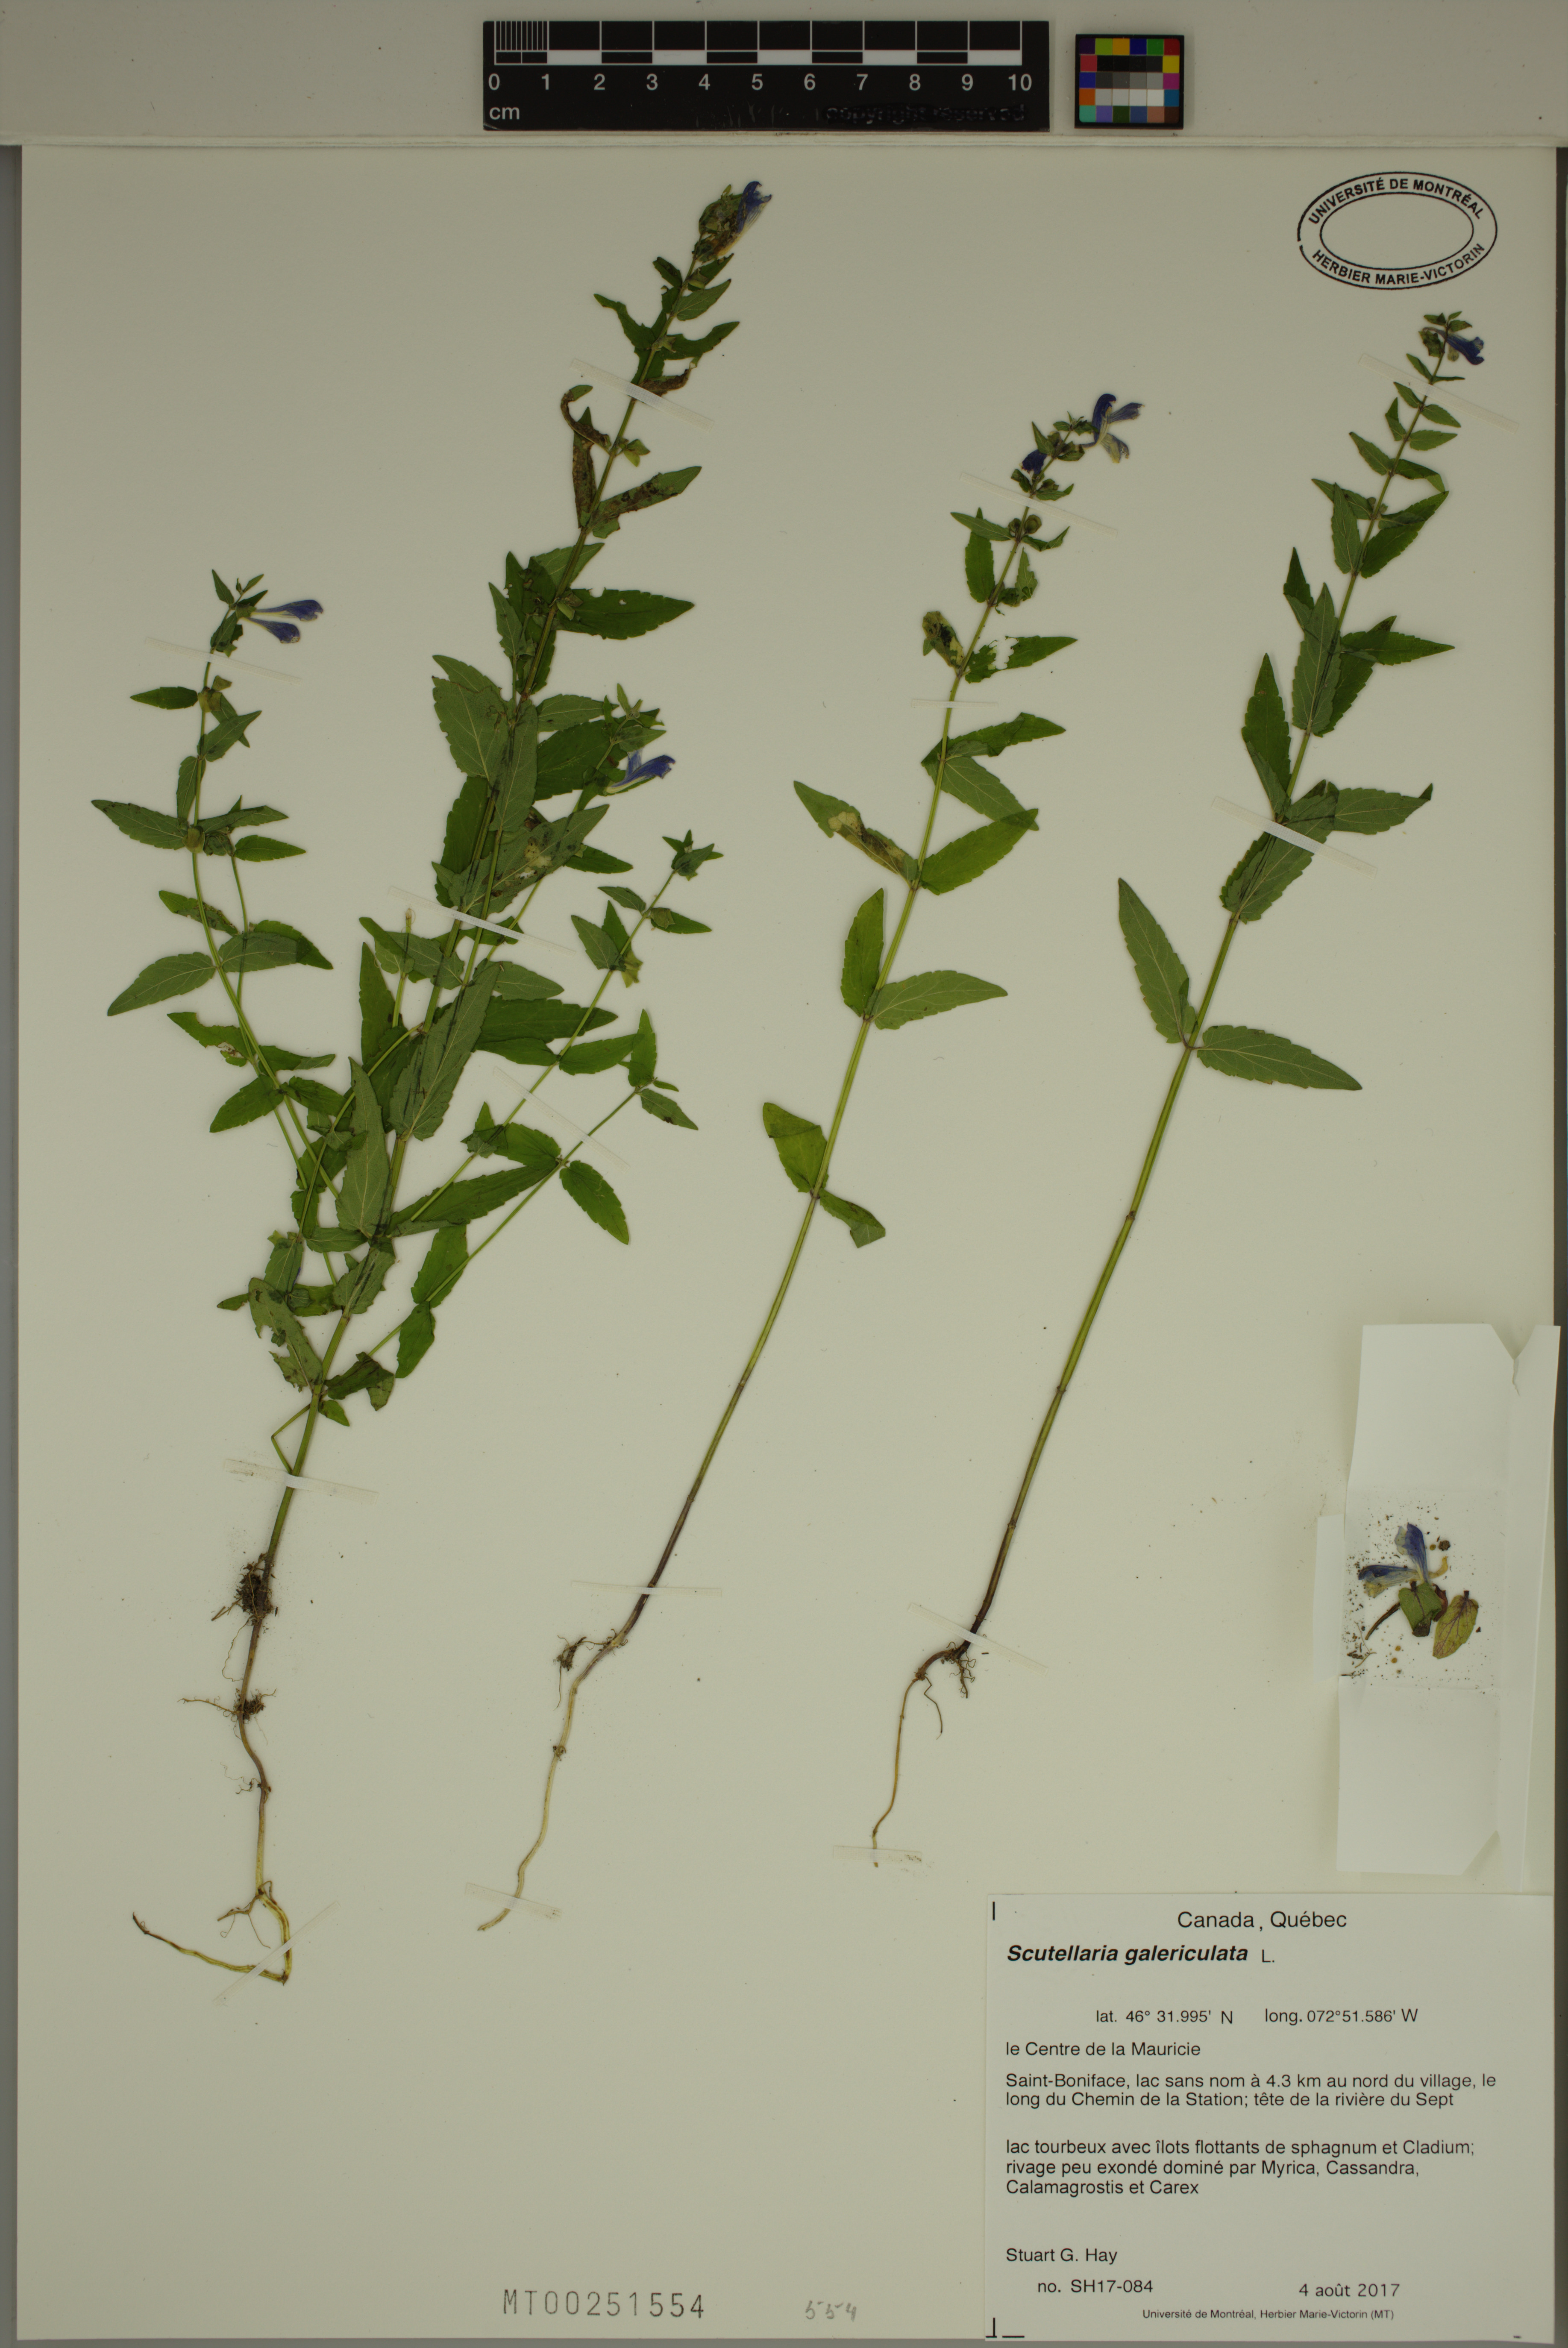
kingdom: Plantae
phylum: Tracheophyta
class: Magnoliopsida
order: Lamiales
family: Lamiaceae
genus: Scutellaria
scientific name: Scutellaria galericulata
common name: Skullcap
